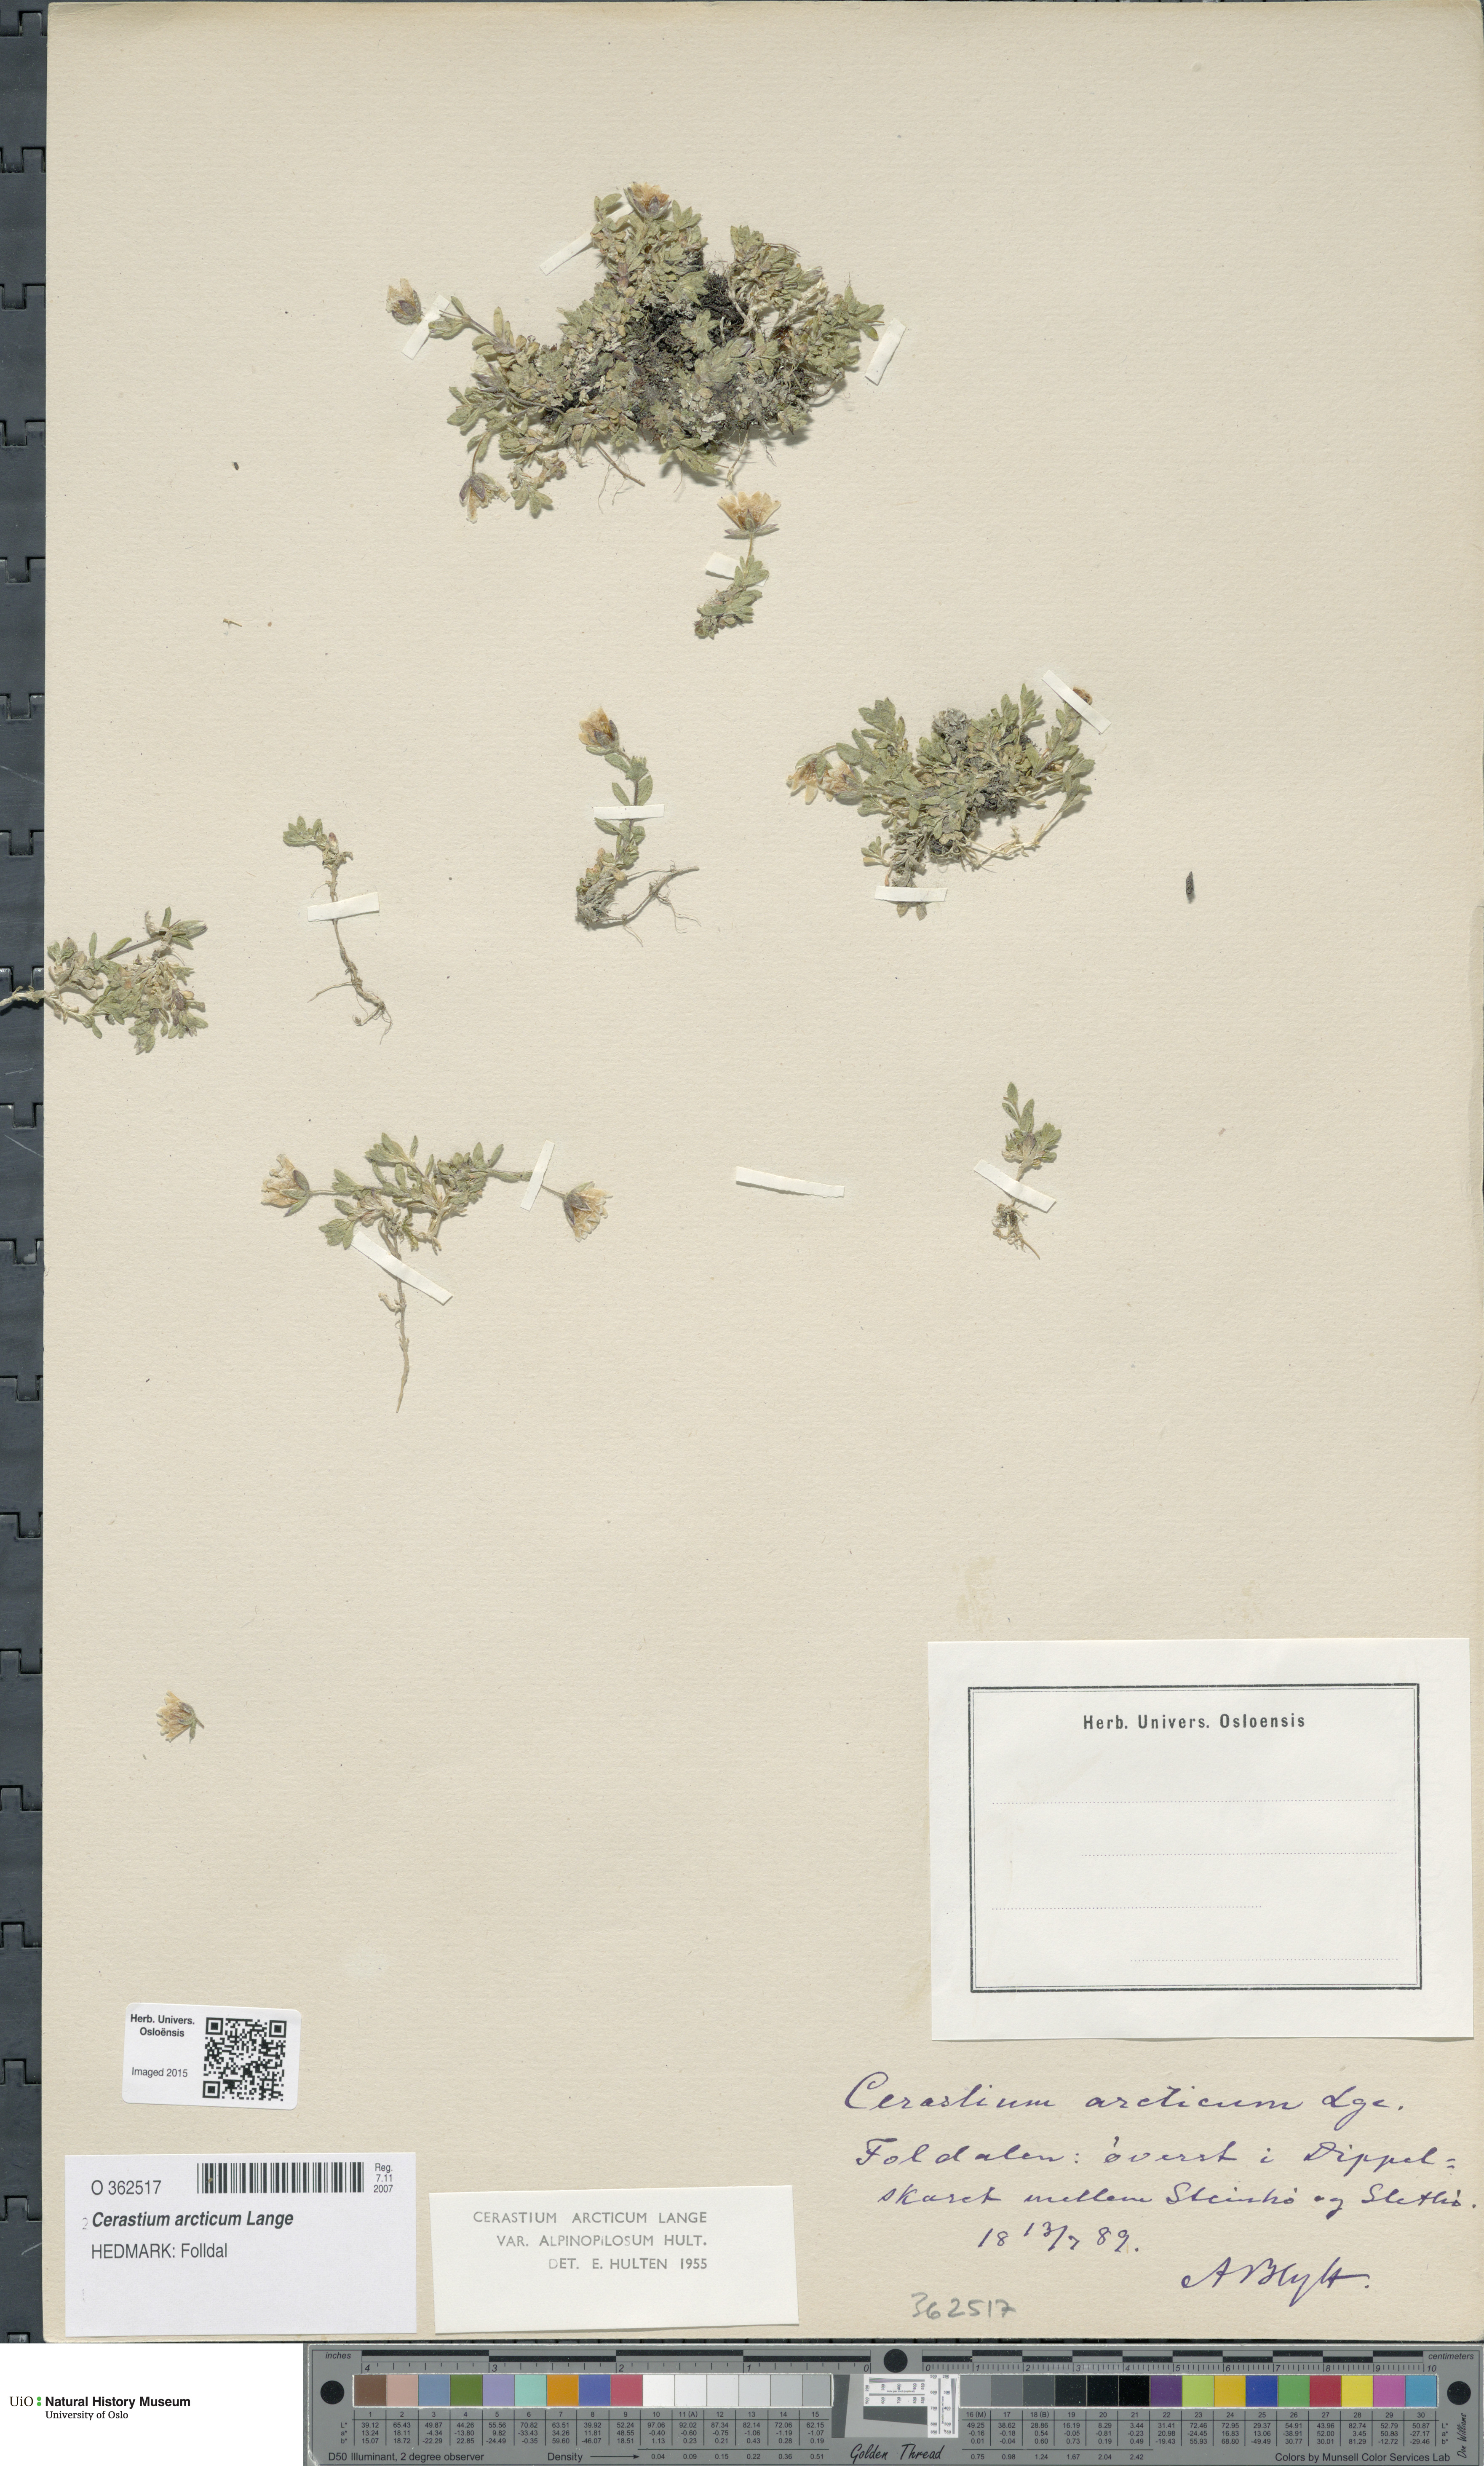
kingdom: Plantae
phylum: Tracheophyta
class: Magnoliopsida
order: Caryophyllales
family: Caryophyllaceae
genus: Cerastium
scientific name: Cerastium arcticum
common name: Arctic mouse-ear
